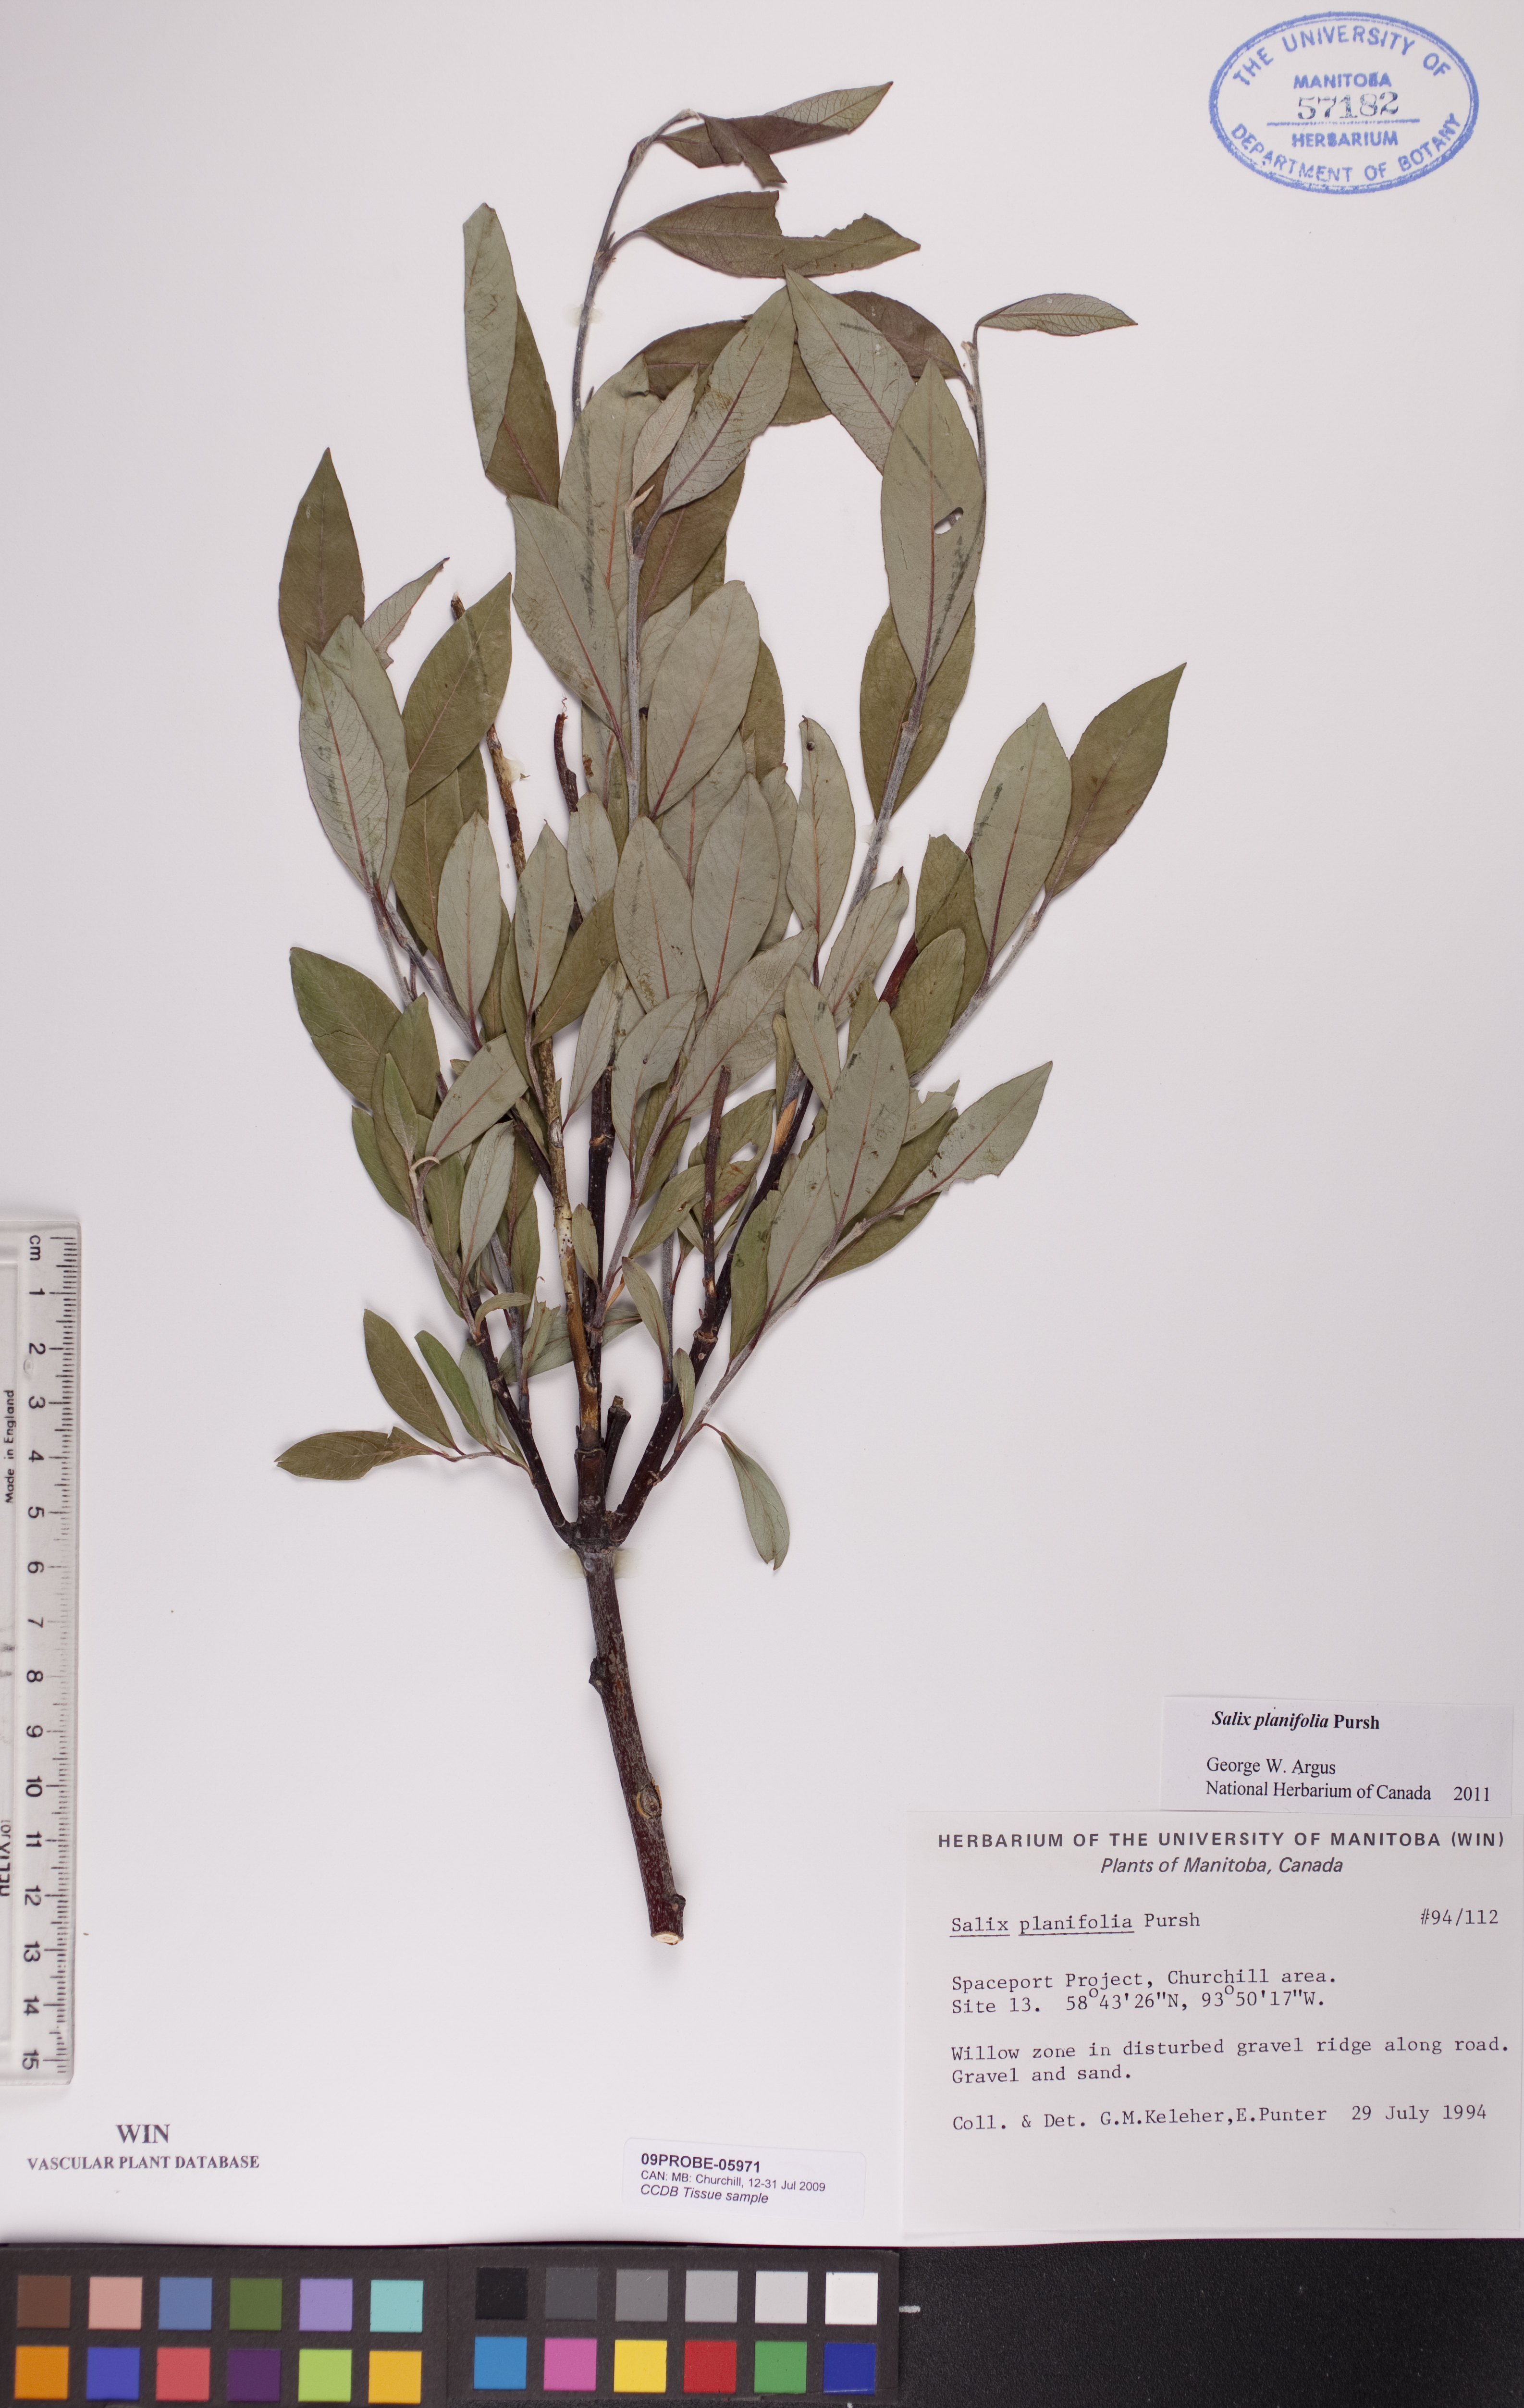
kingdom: Plantae
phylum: Tracheophyta
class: Magnoliopsida
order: Malpighiales
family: Salicaceae
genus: Salix
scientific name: Salix planifolia
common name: Mountain willow
